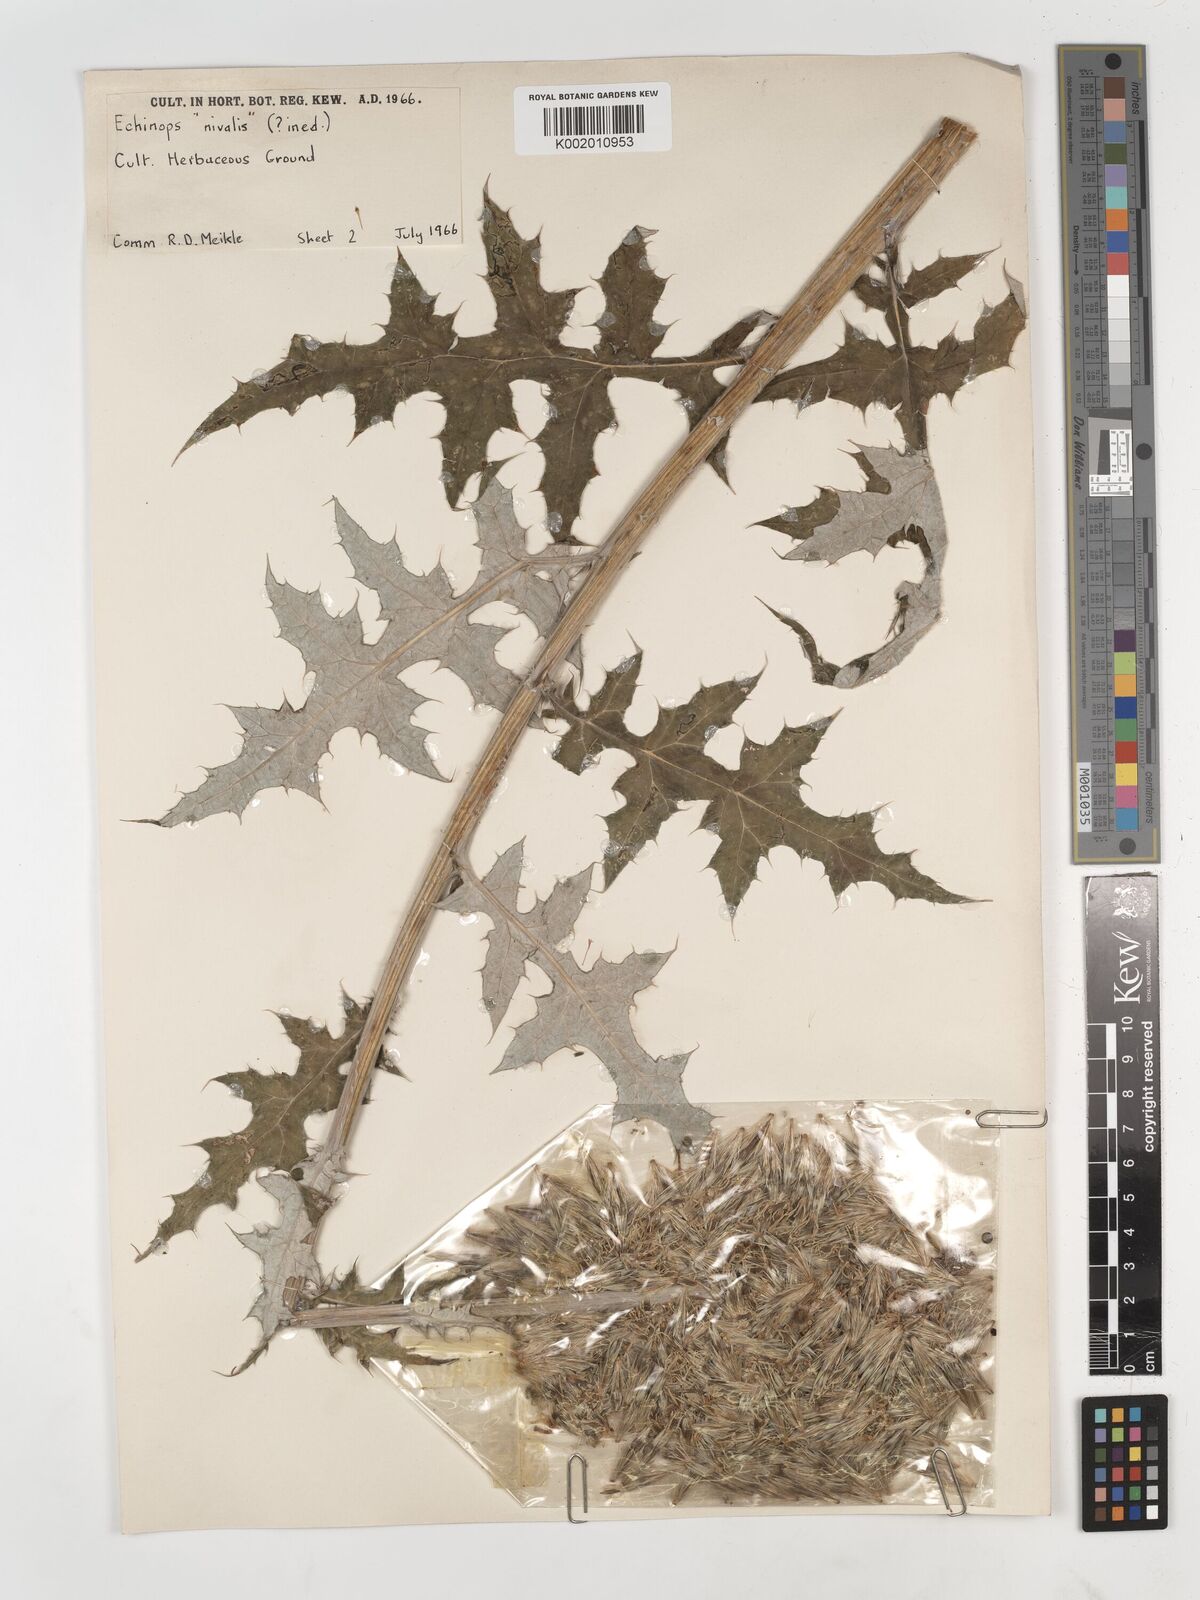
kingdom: Plantae
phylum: Tracheophyta
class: Magnoliopsida
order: Asterales
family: Asteraceae
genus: Echinops
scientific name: Echinops
